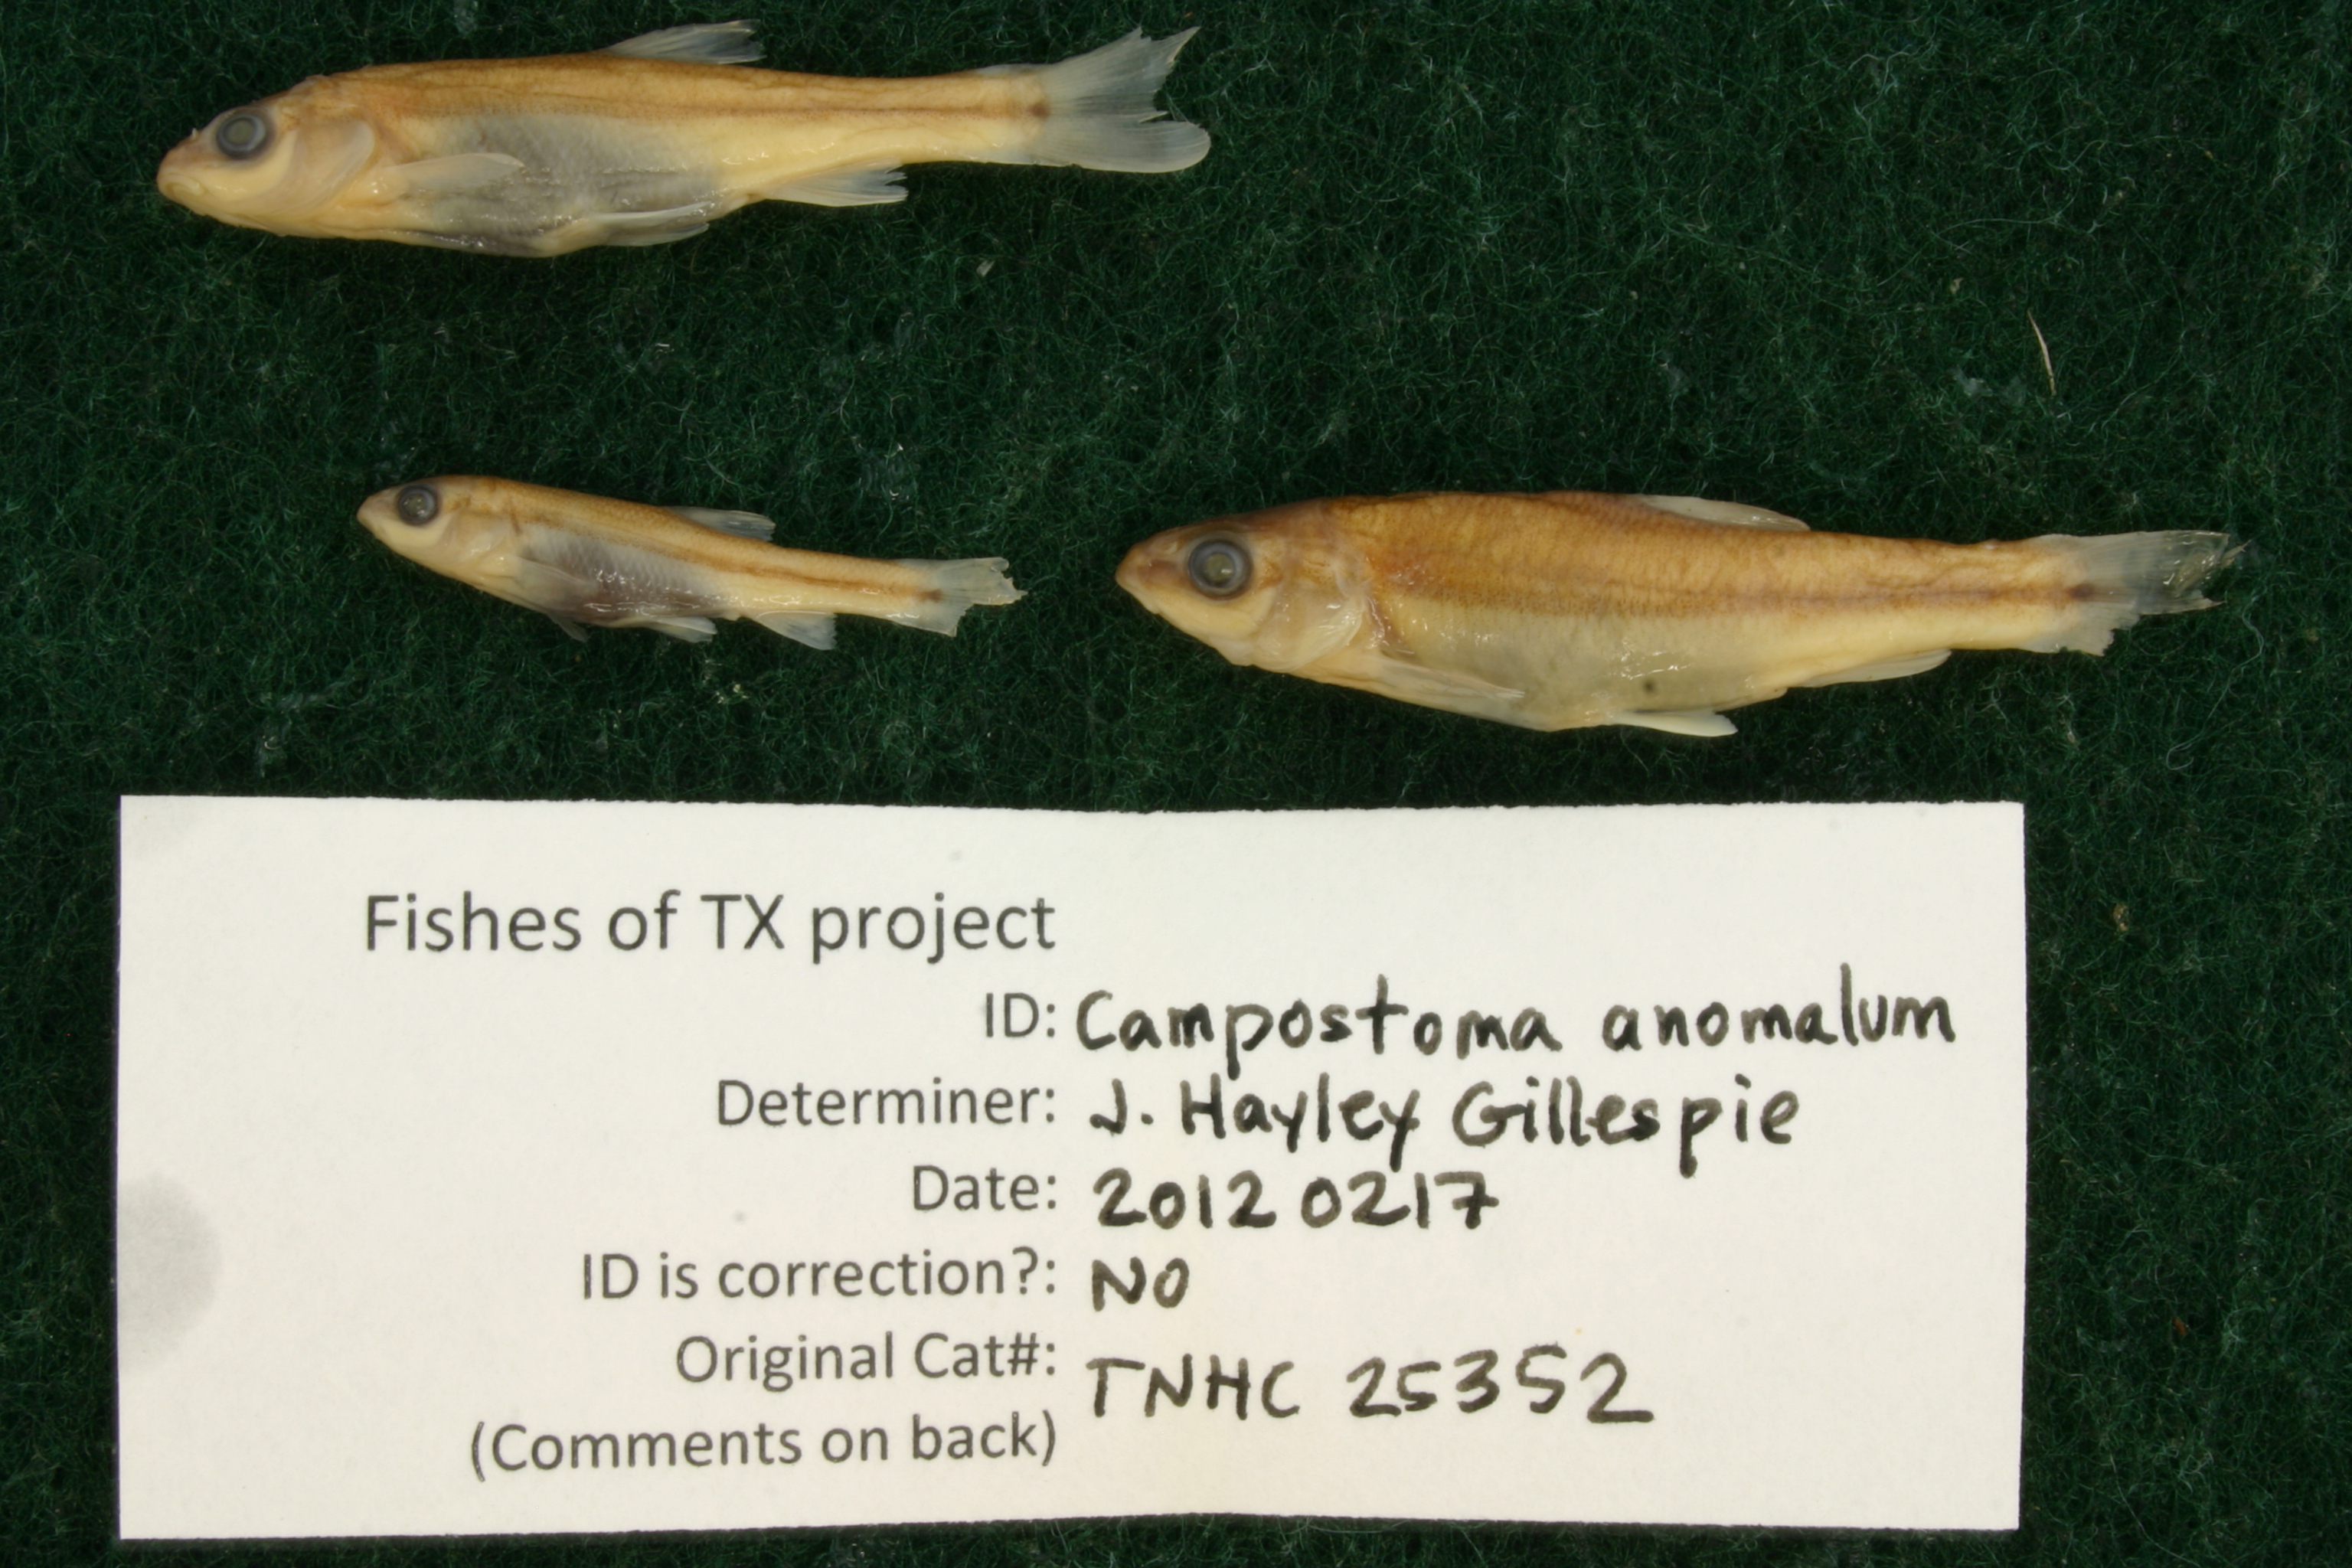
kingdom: Animalia
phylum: Chordata
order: Cypriniformes
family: Cyprinidae
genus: Campostoma
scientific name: Campostoma anomalum
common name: Central stoneroller
